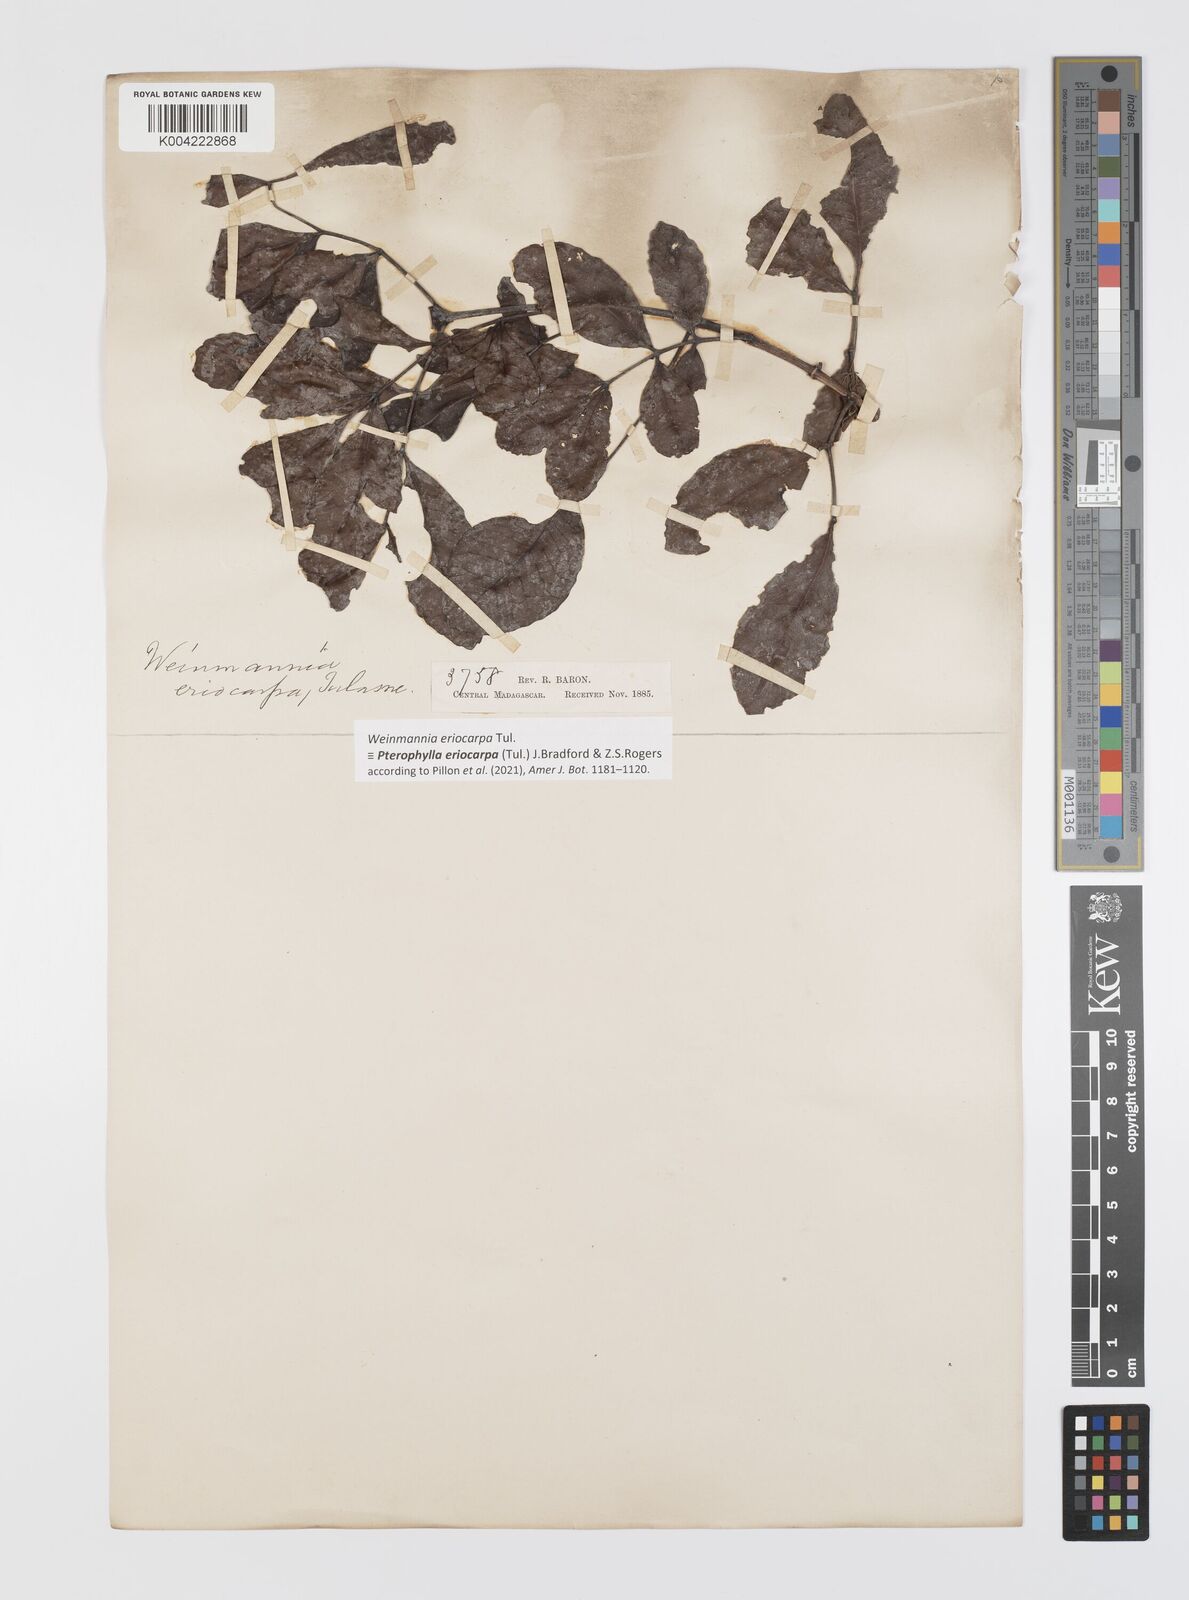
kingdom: Plantae
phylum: Tracheophyta
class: Magnoliopsida
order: Oxalidales
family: Cunoniaceae
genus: Pterophylla
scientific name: Pterophylla eriocarpa
